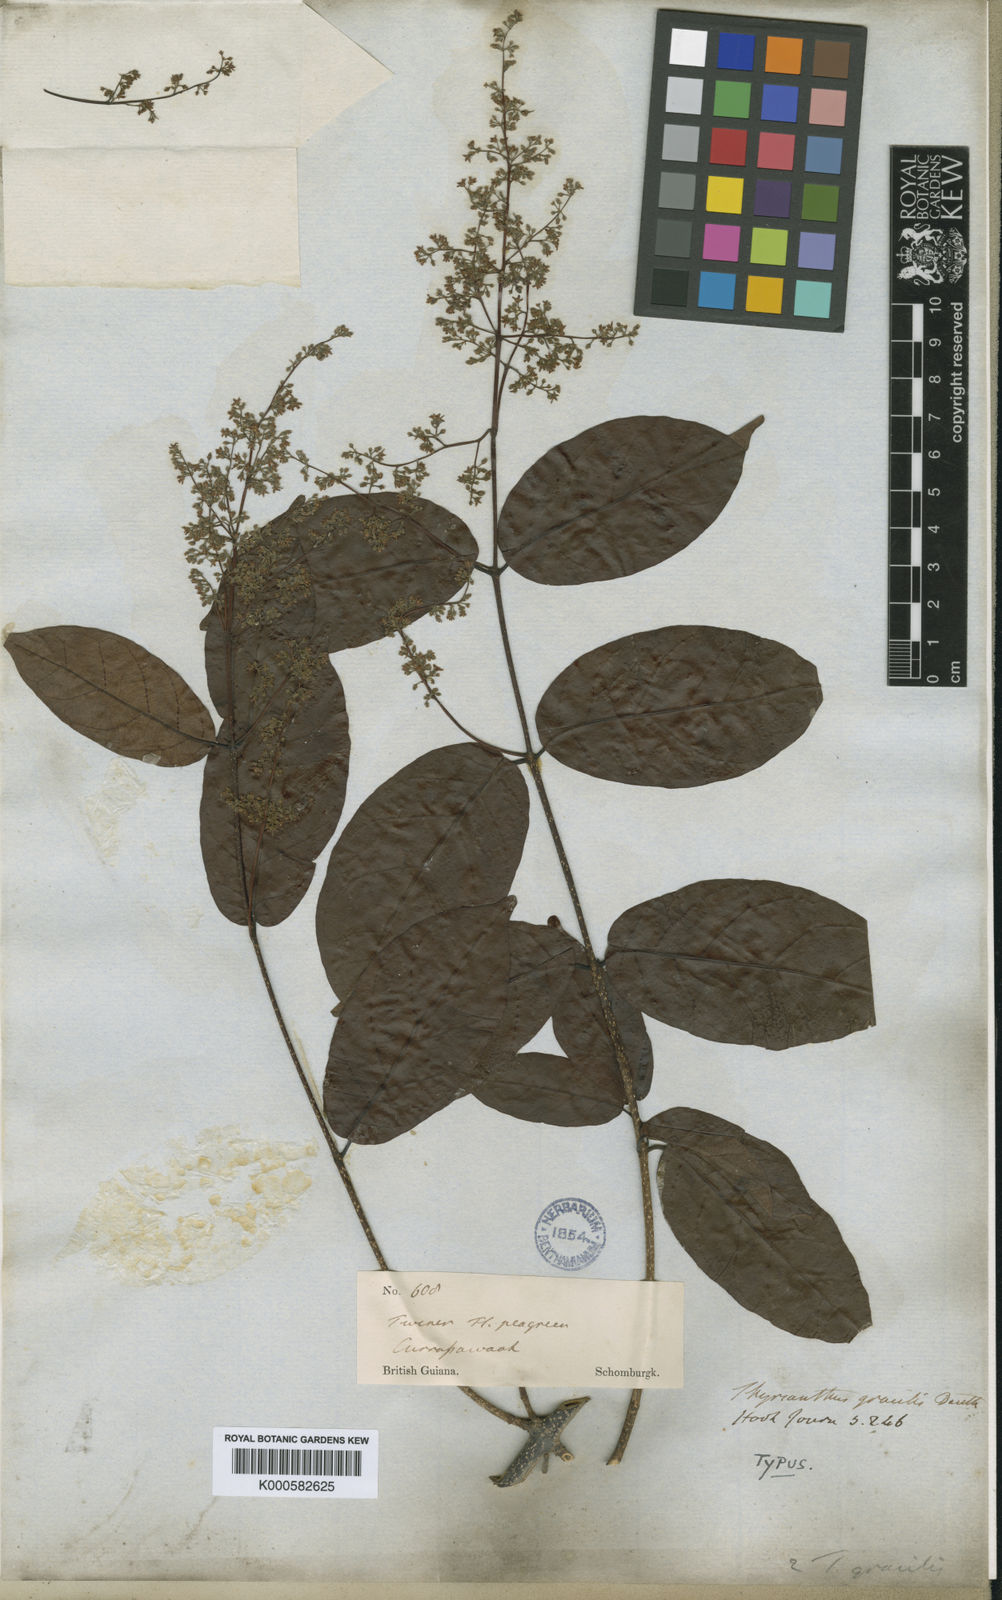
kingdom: Plantae
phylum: Tracheophyta
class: Magnoliopsida
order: Gentianales
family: Apocynaceae
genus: Forsteronia
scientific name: Forsteronia
